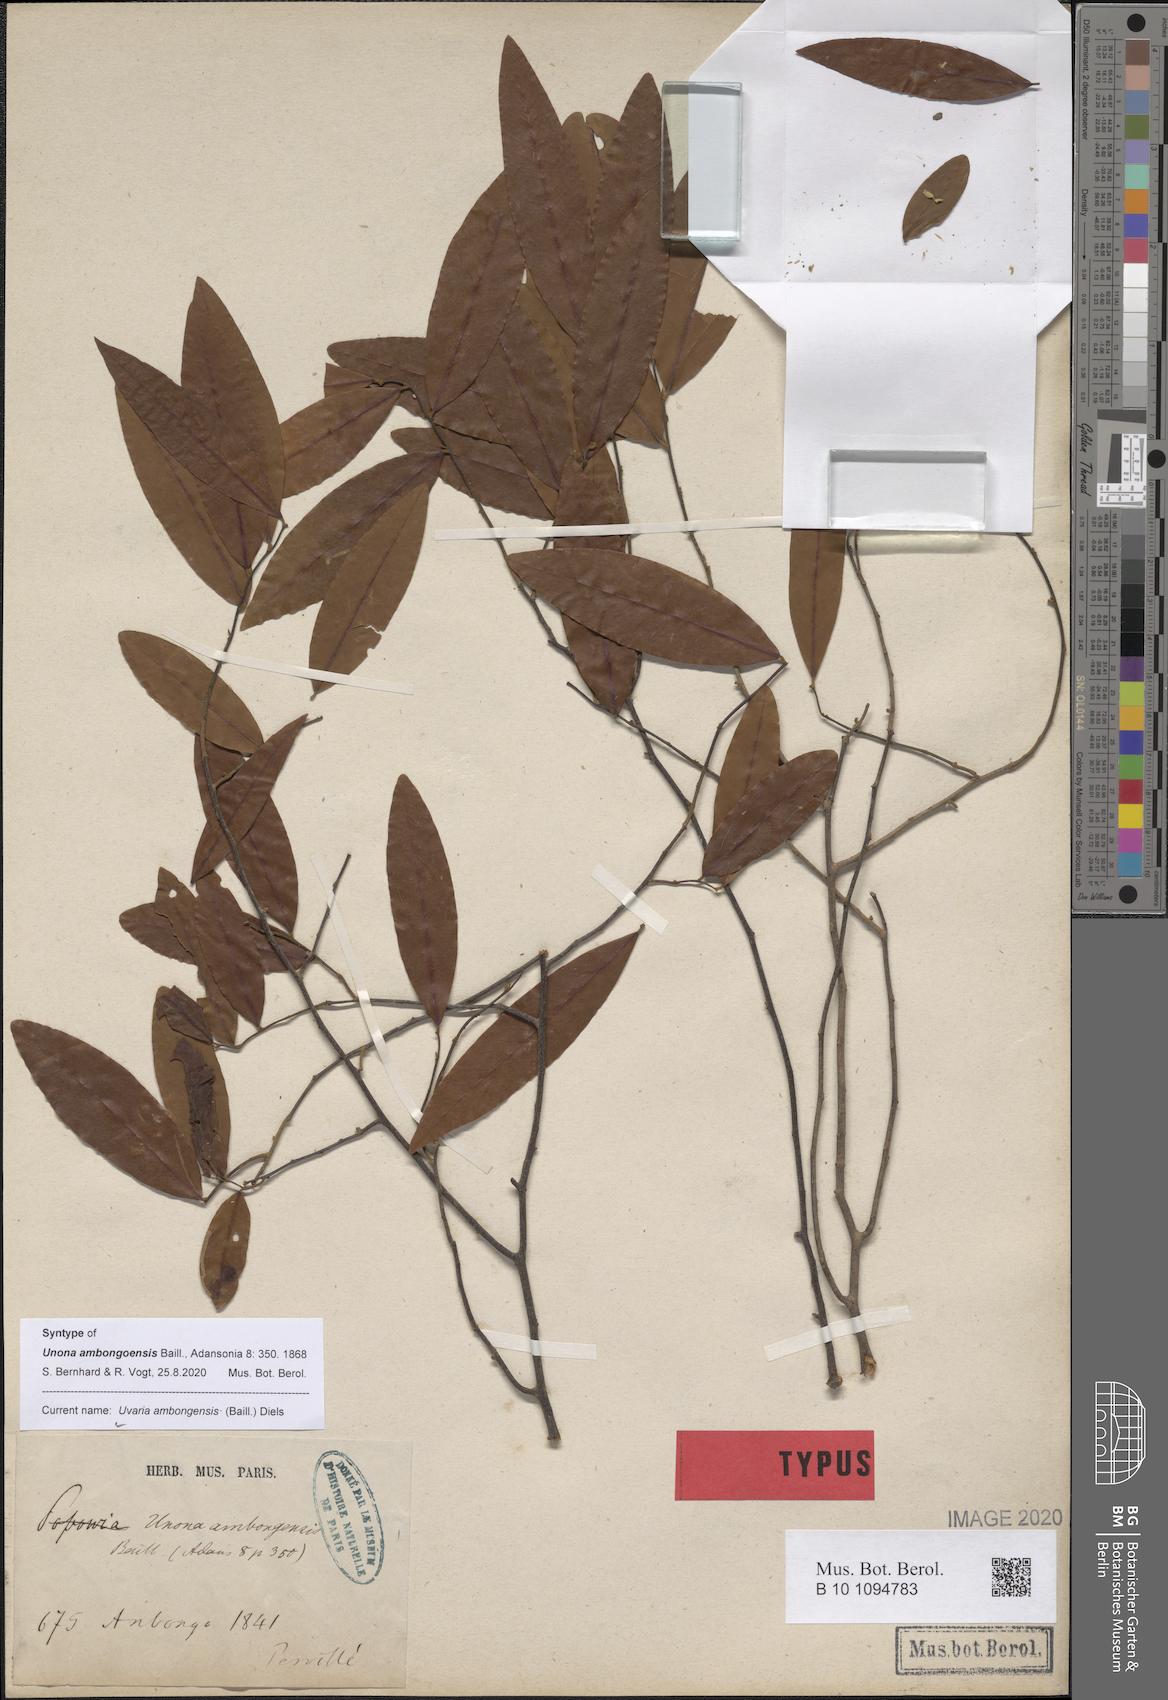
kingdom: Plantae
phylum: Tracheophyta
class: Magnoliopsida
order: Magnoliales
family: Annonaceae
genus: Uvaria
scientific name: Uvaria ambongensis
